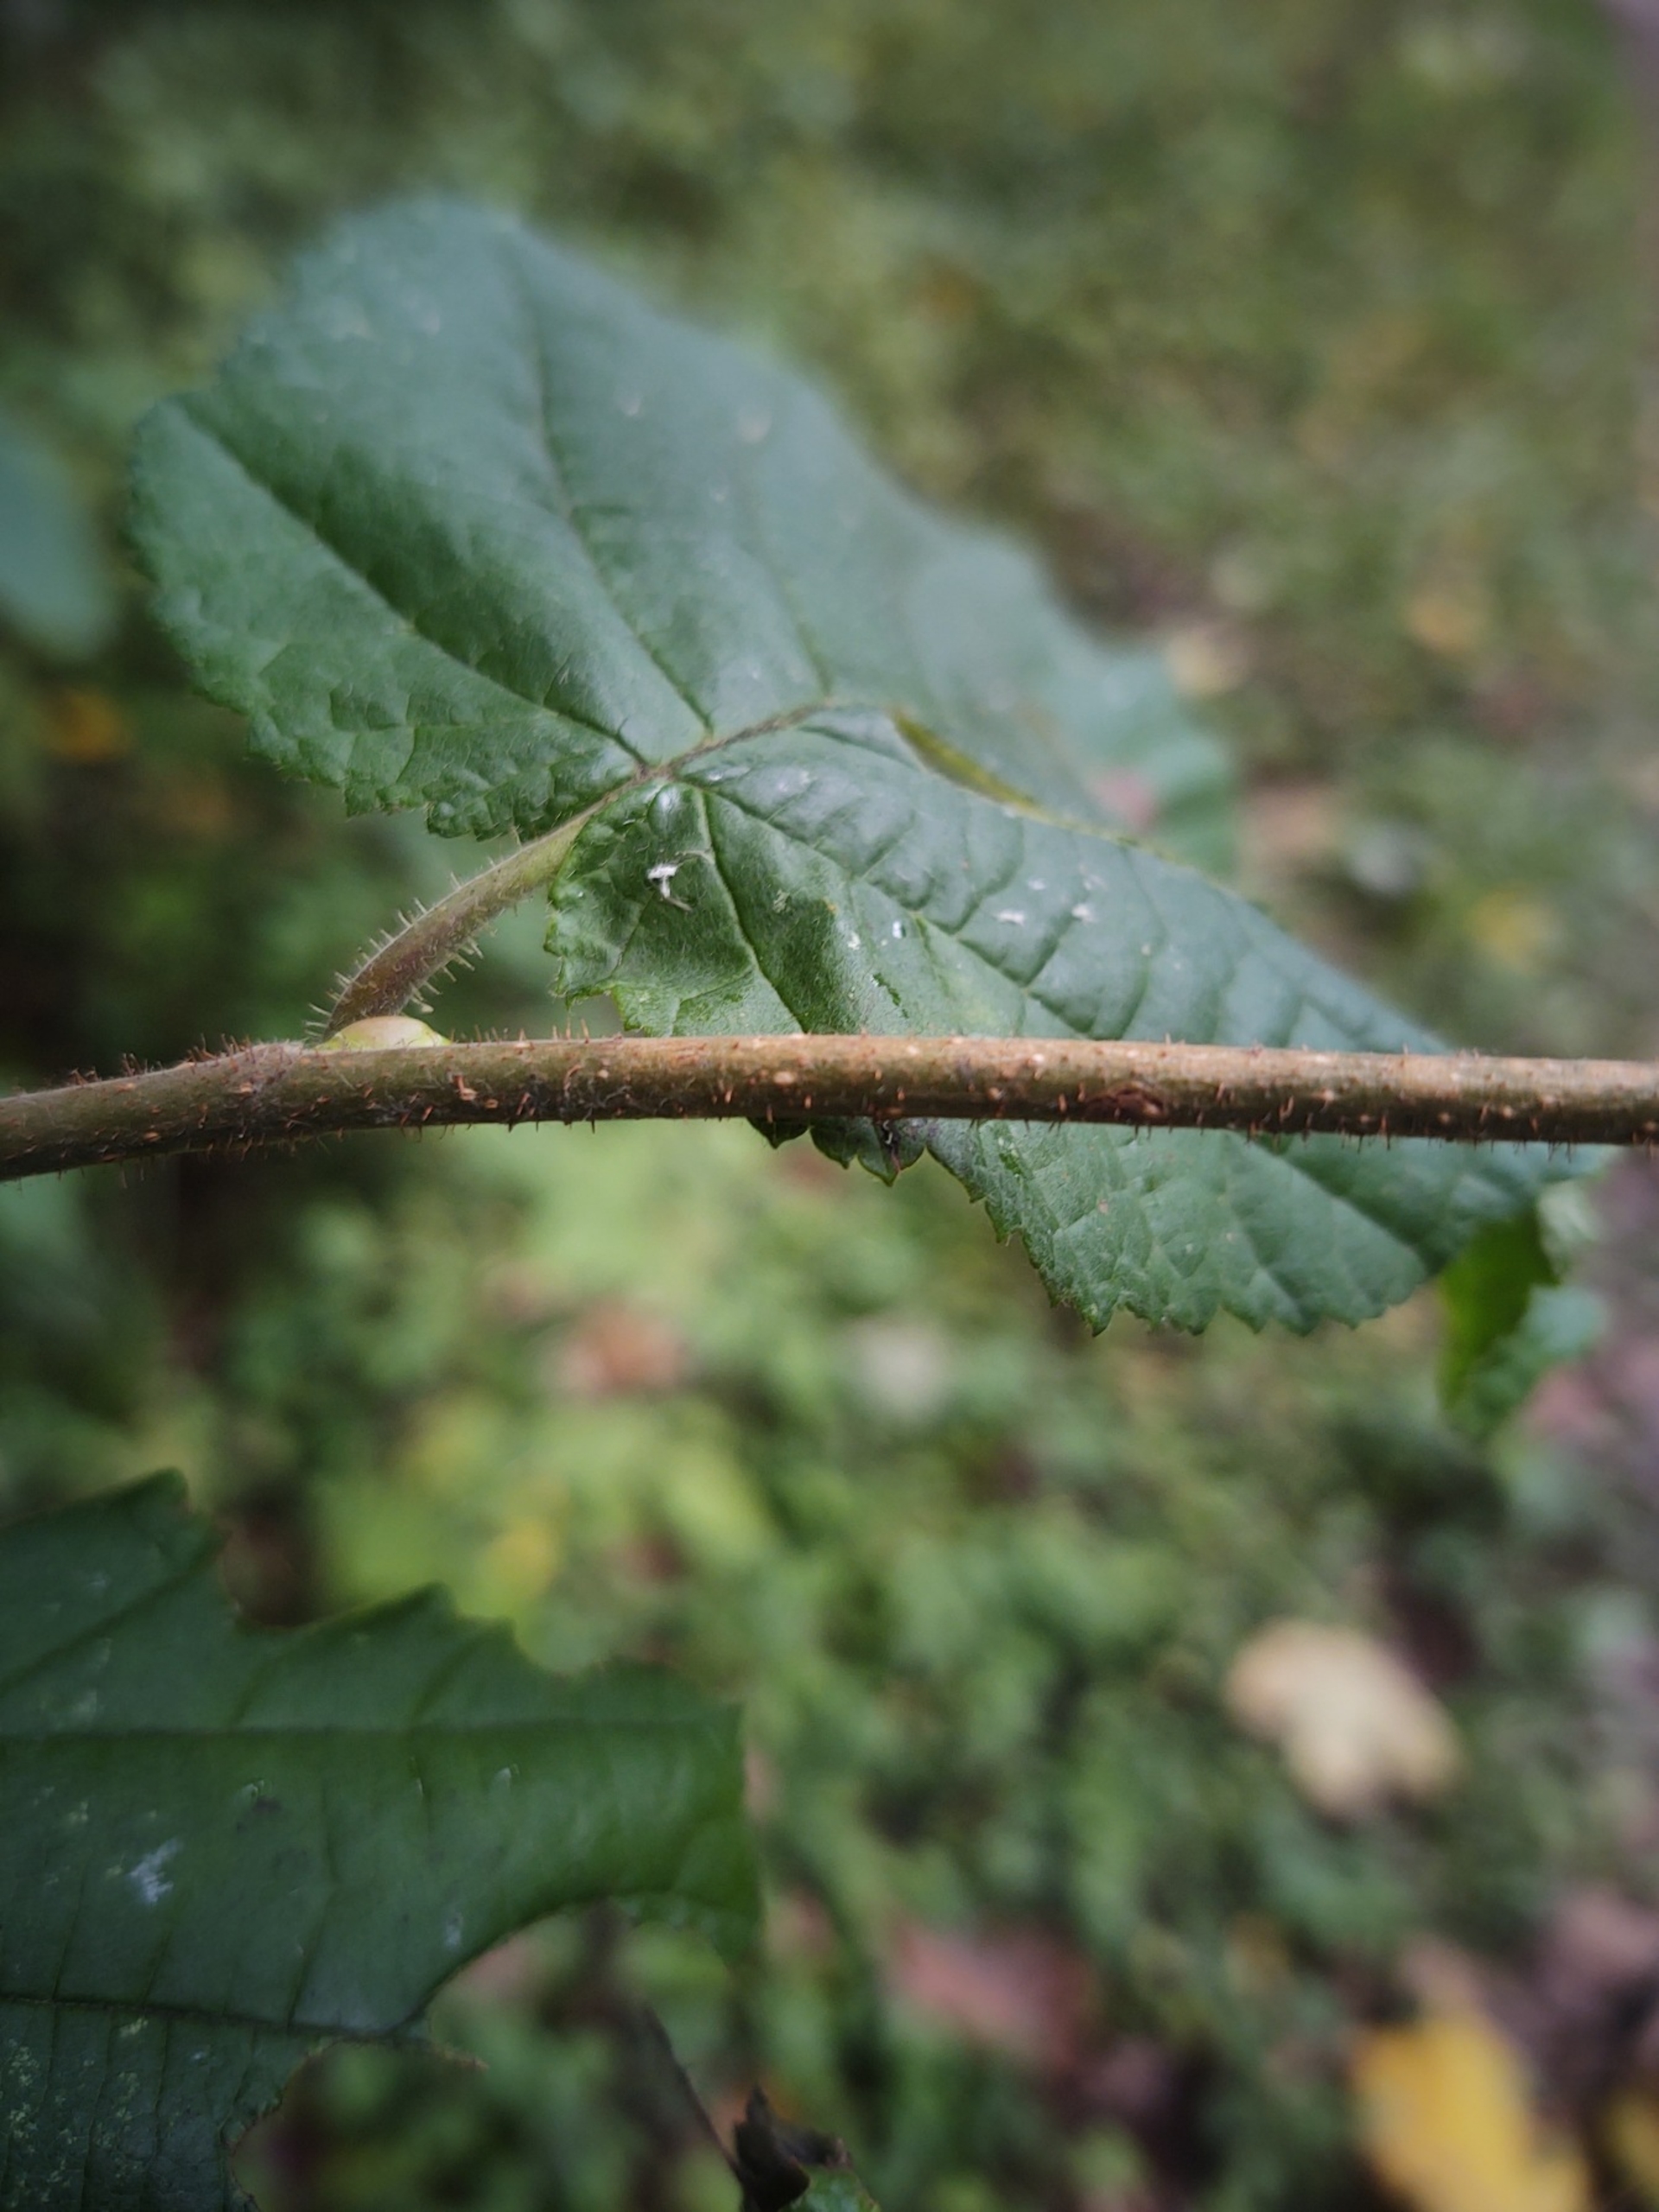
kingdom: Plantae
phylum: Tracheophyta
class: Magnoliopsida
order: Fagales
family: Betulaceae
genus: Corylus
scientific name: Corylus avellana
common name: Hassel
